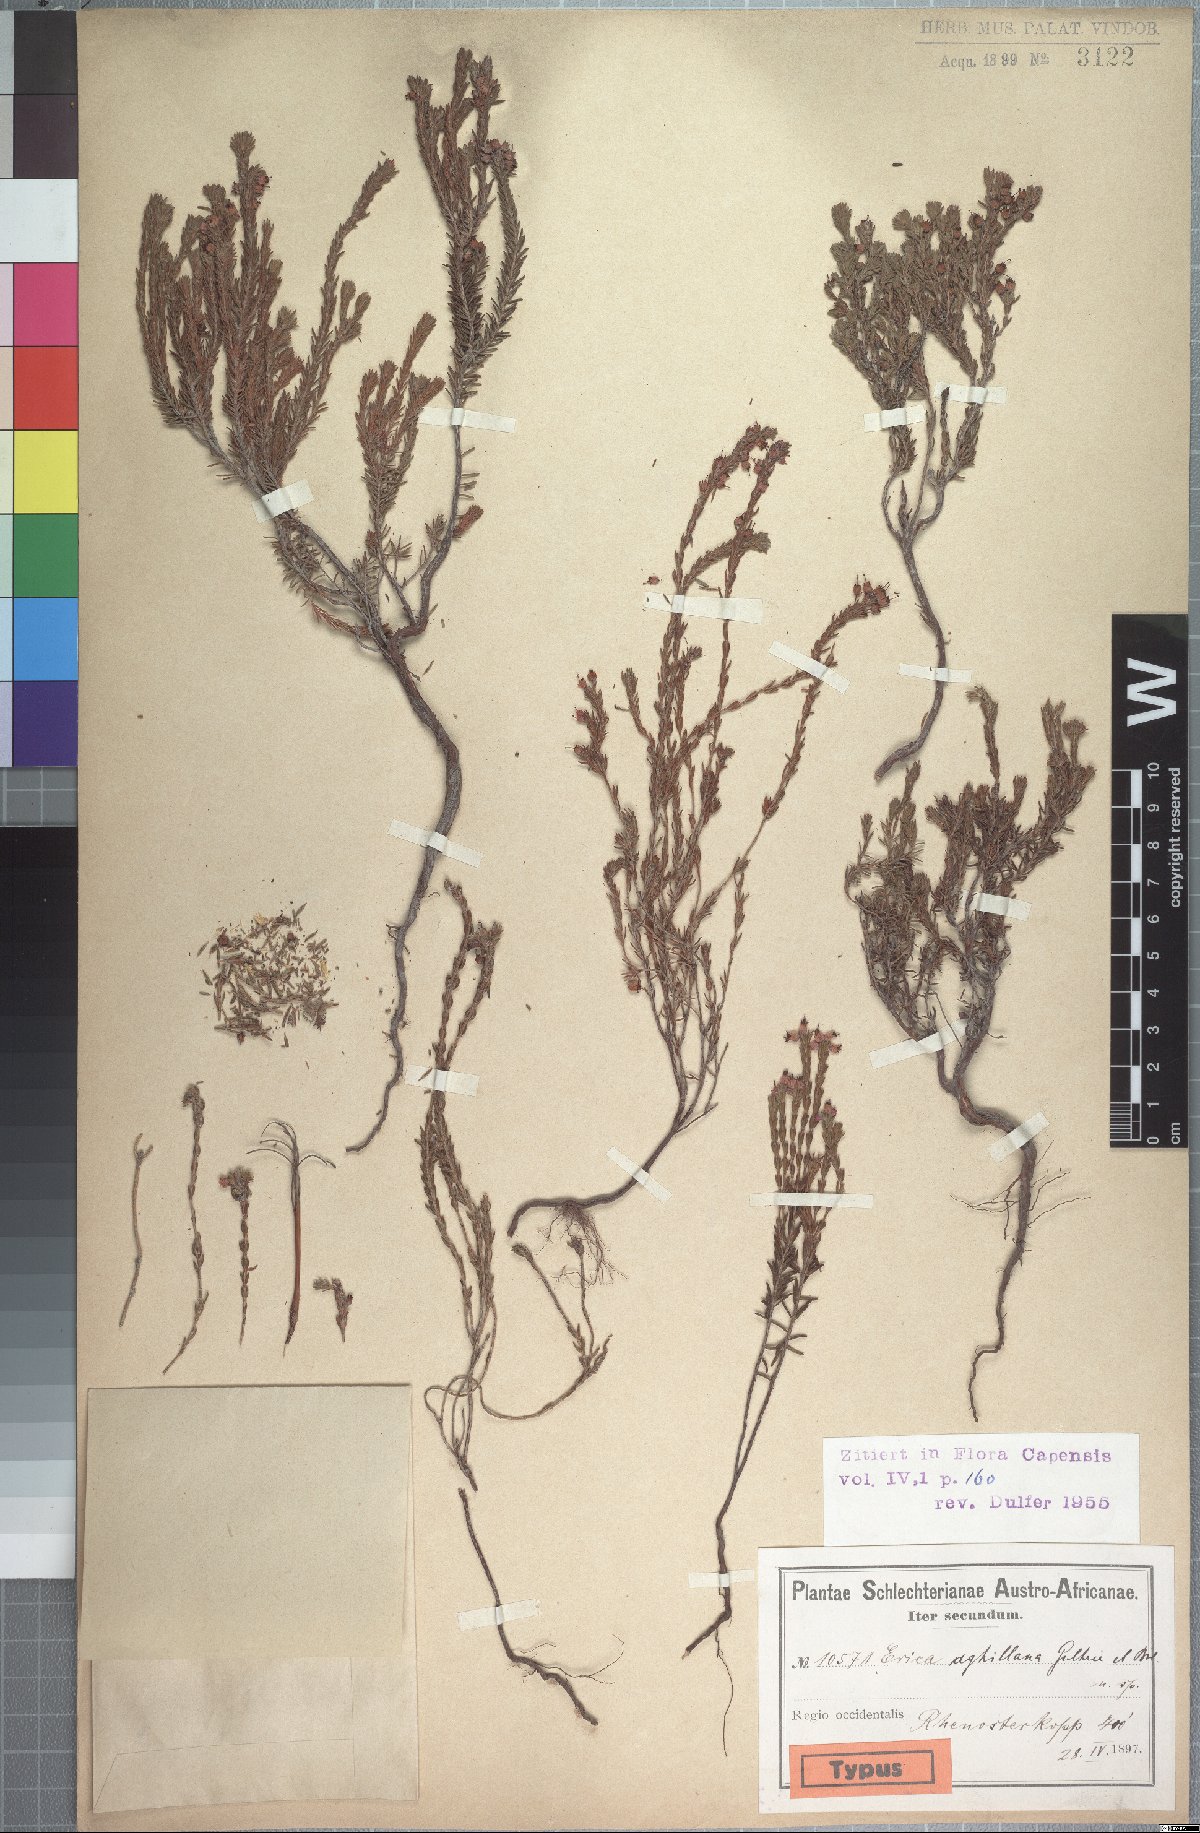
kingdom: Plantae
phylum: Tracheophyta
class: Magnoliopsida
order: Ericales
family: Ericaceae
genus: Erica
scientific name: Erica aghillana
